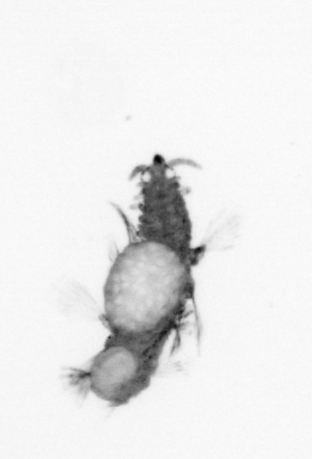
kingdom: Animalia
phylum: Annelida
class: Polychaeta
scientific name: Polychaeta
